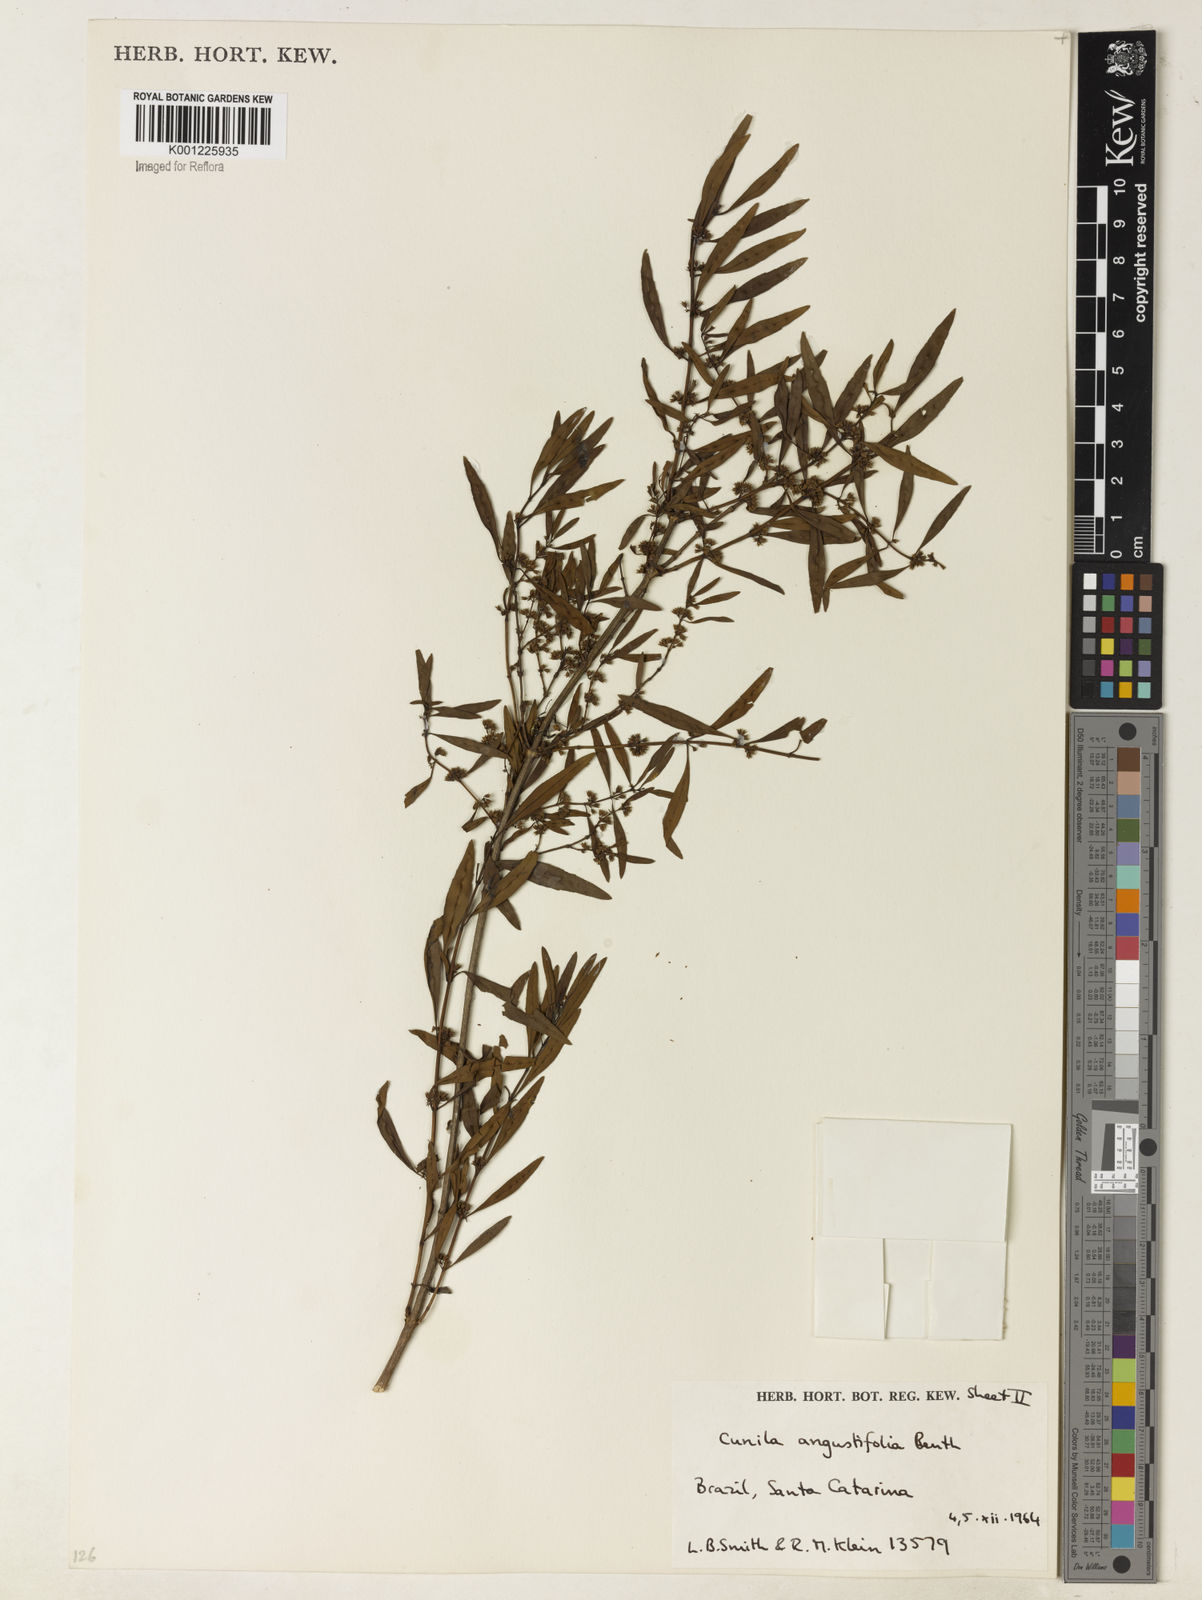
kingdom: Plantae
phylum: Tracheophyta
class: Magnoliopsida
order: Lamiales
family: Lamiaceae
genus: Cunila
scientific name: Cunila angustifolia
